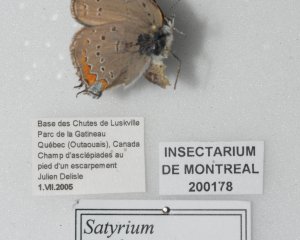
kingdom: Animalia
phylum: Arthropoda
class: Insecta
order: Lepidoptera
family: Lycaenidae
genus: Strymon
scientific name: Strymon acadica
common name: Acadian Hairstreak
